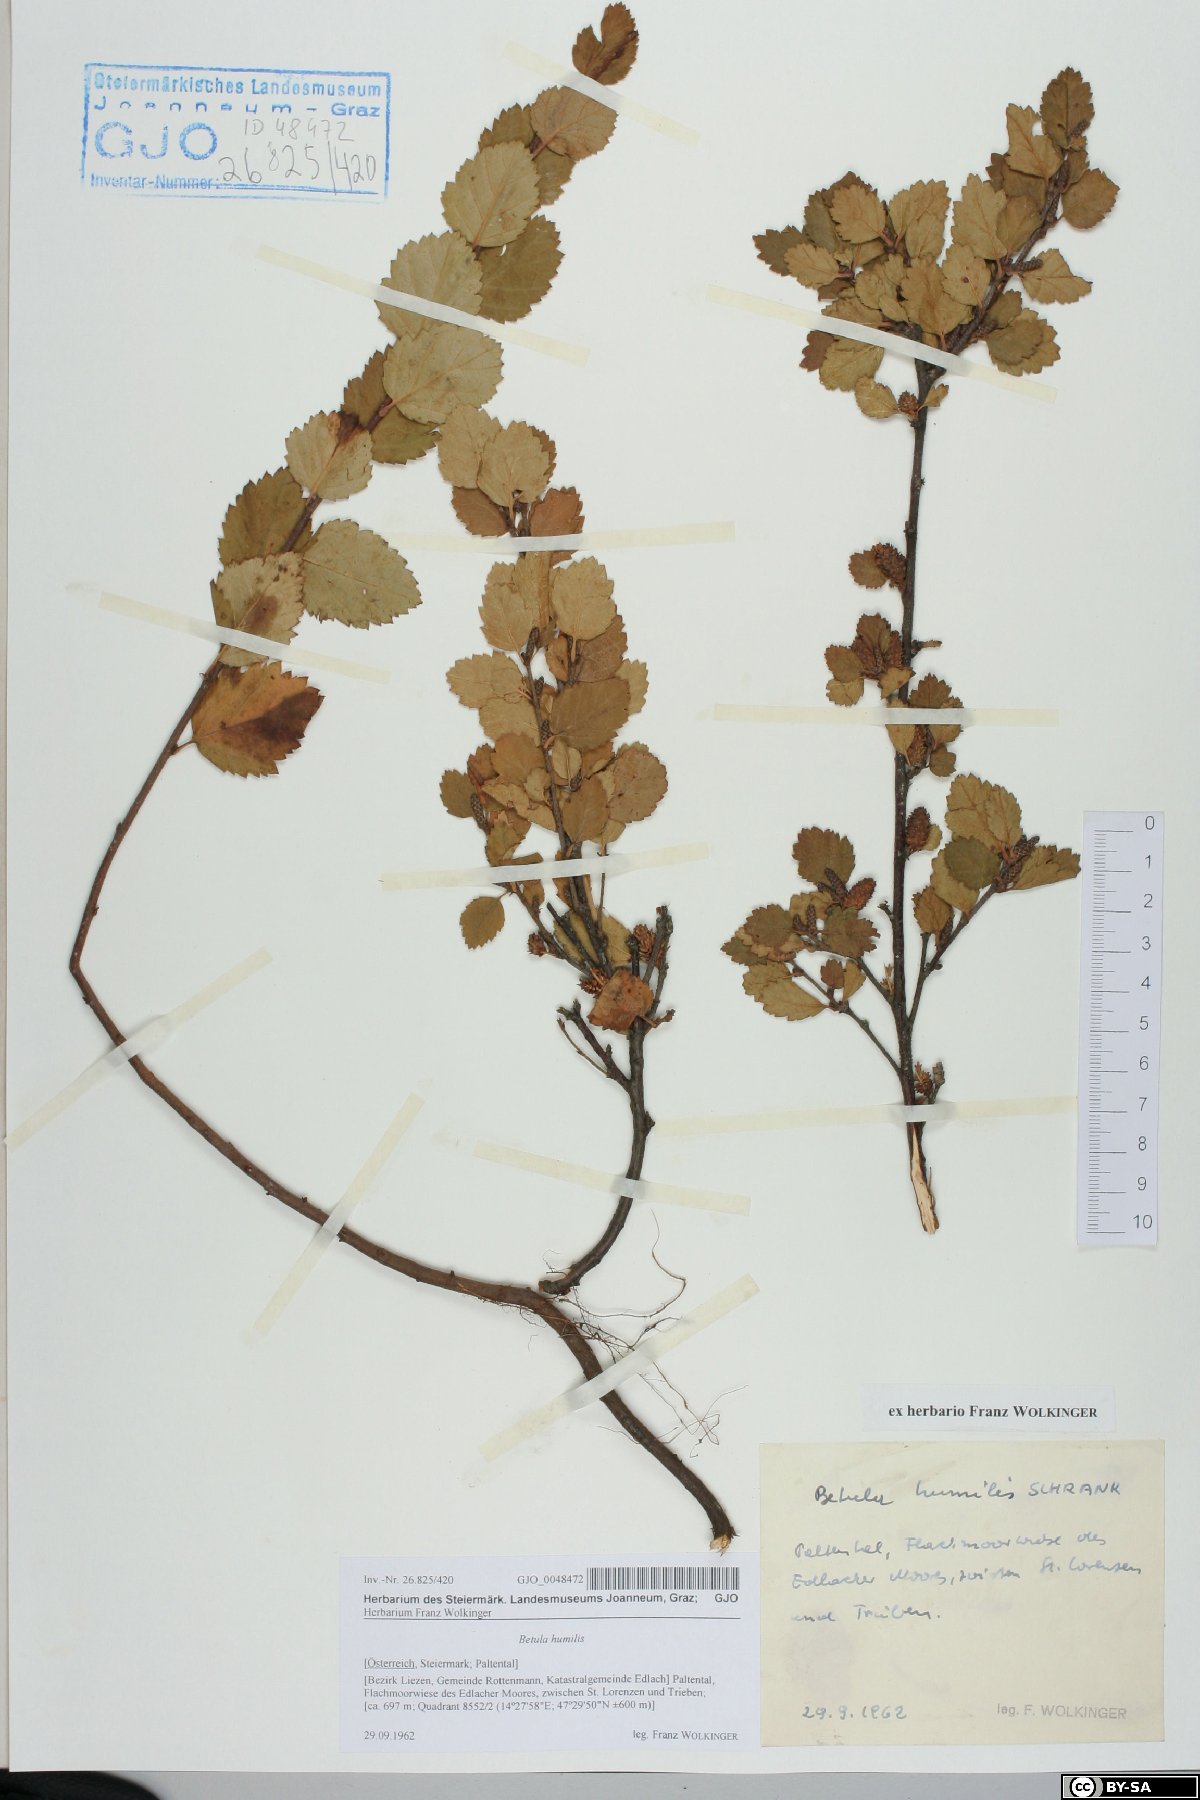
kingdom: Plantae
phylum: Tracheophyta
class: Magnoliopsida
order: Fagales
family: Betulaceae
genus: Betula
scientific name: Betula humilis
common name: Shrubby birch
